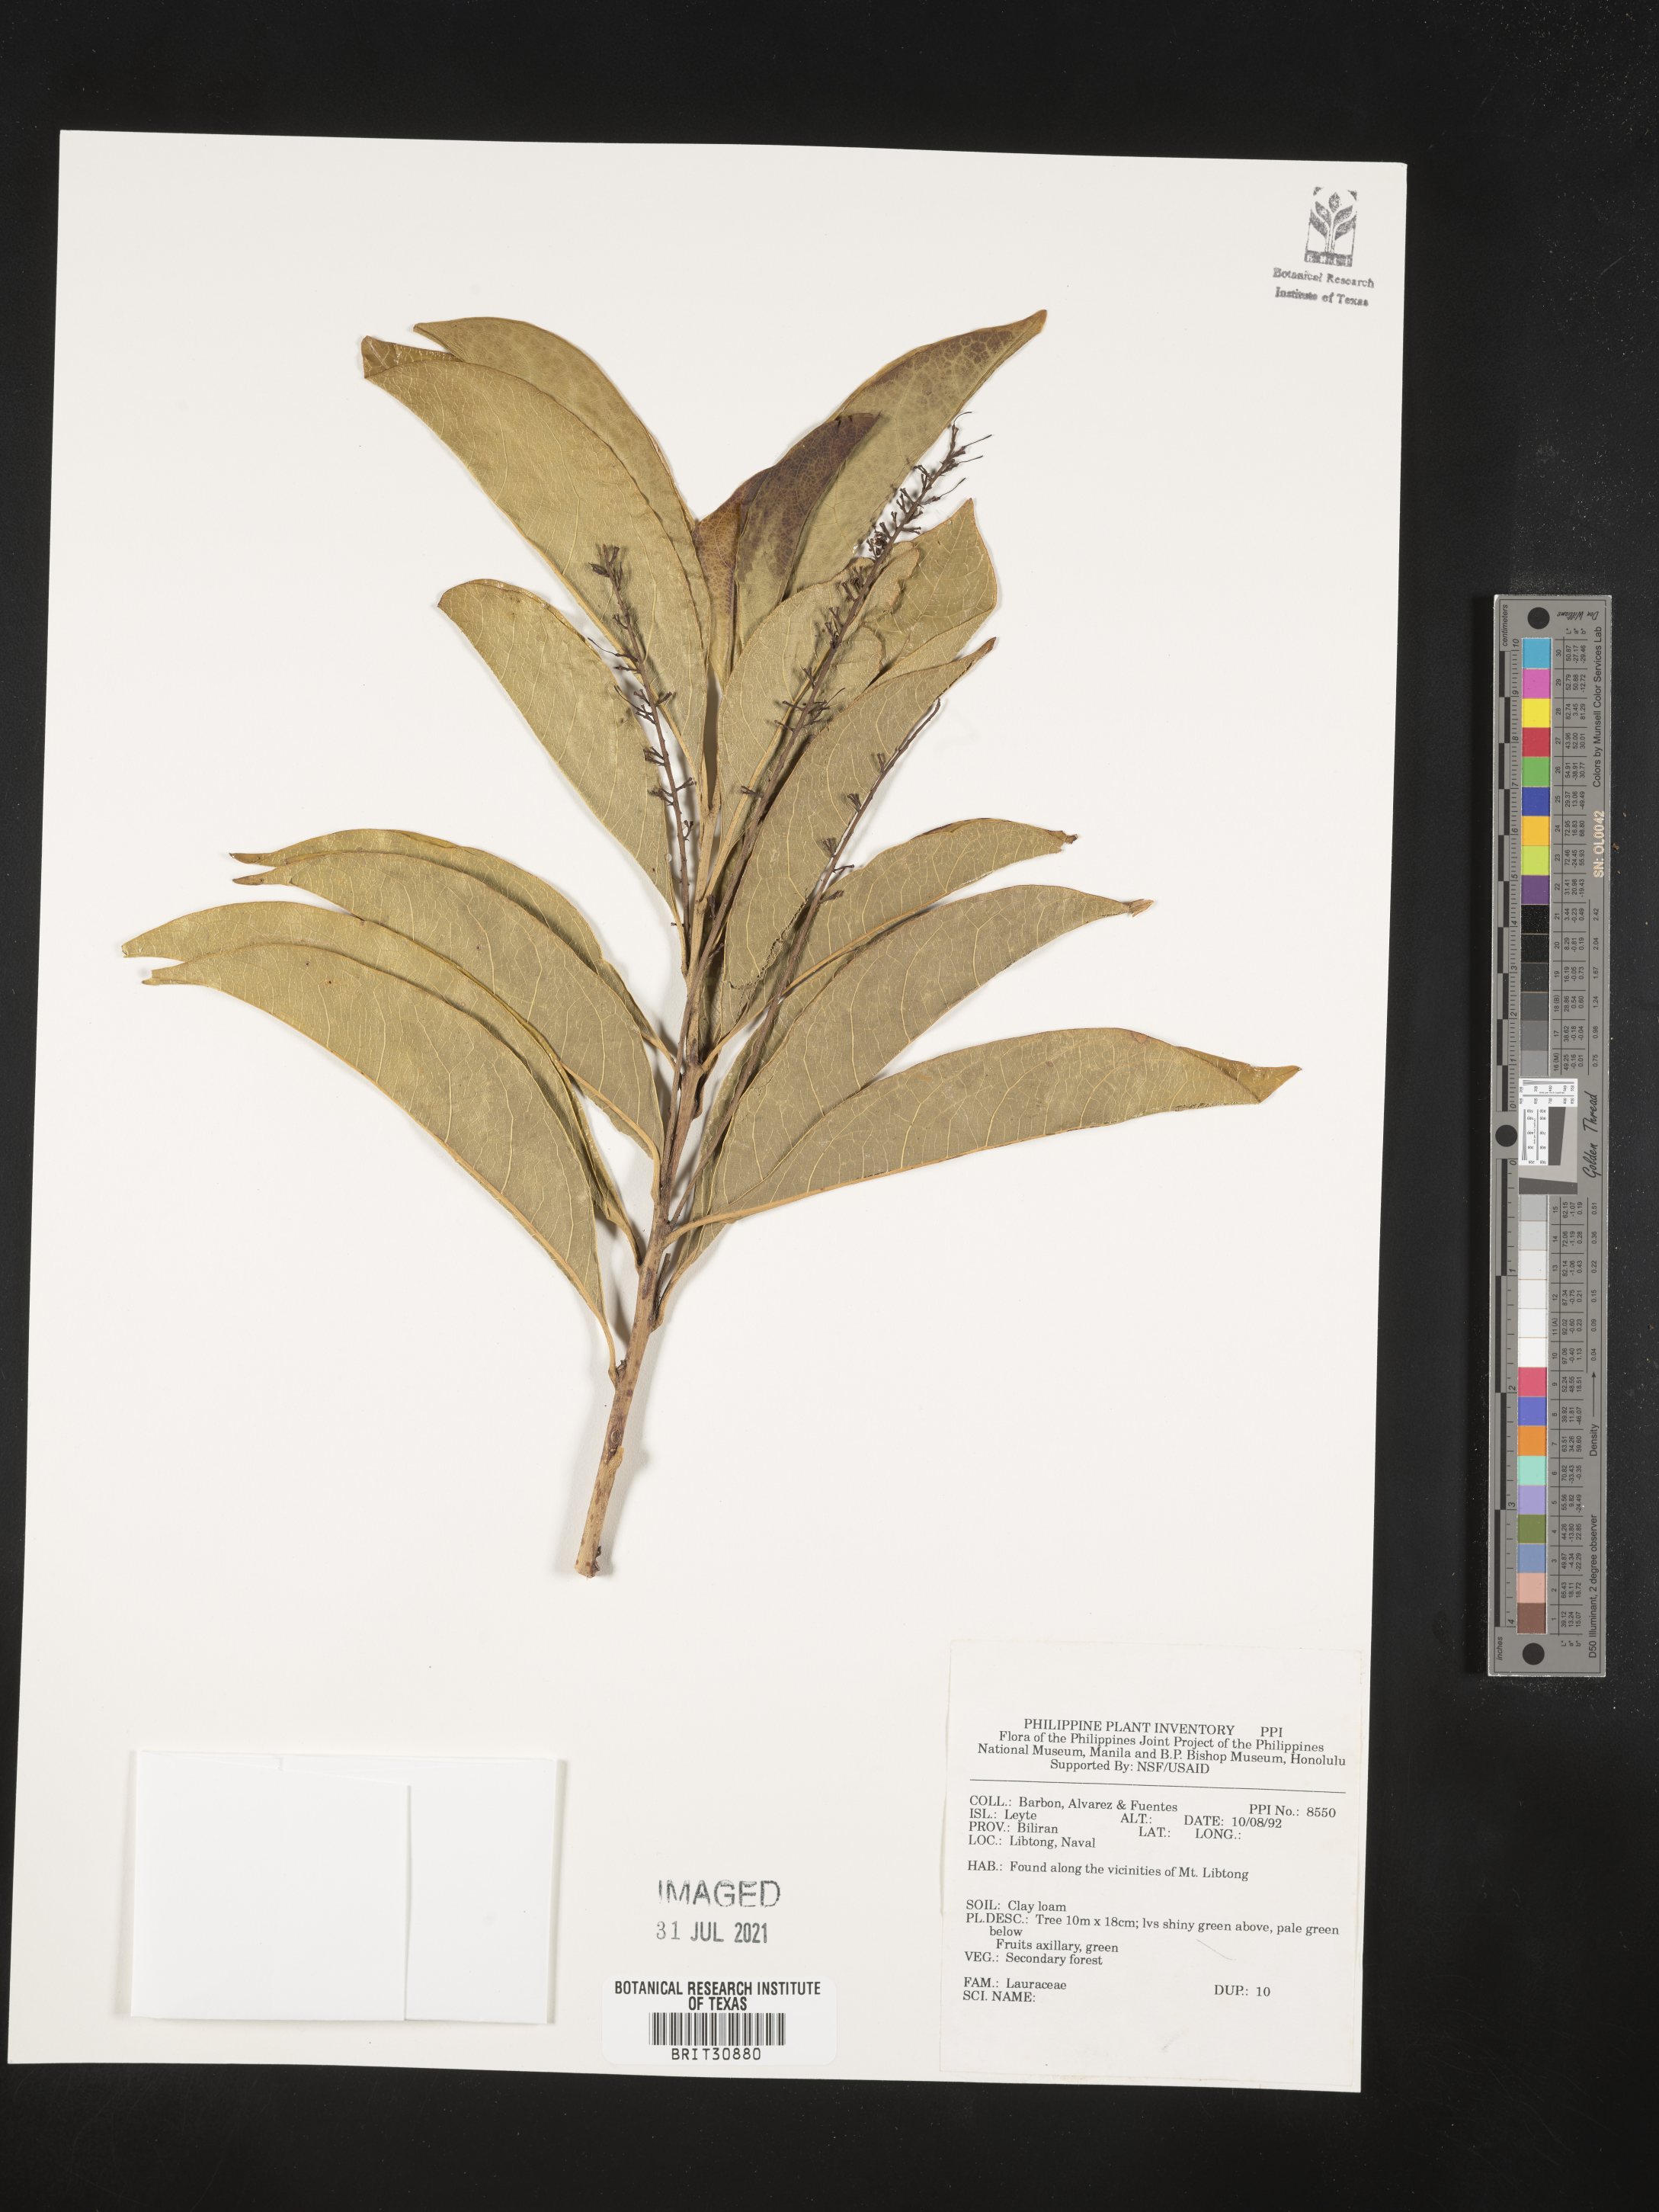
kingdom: Plantae
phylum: Tracheophyta
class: Magnoliopsida
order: Laurales
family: Lauraceae
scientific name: Lauraceae
